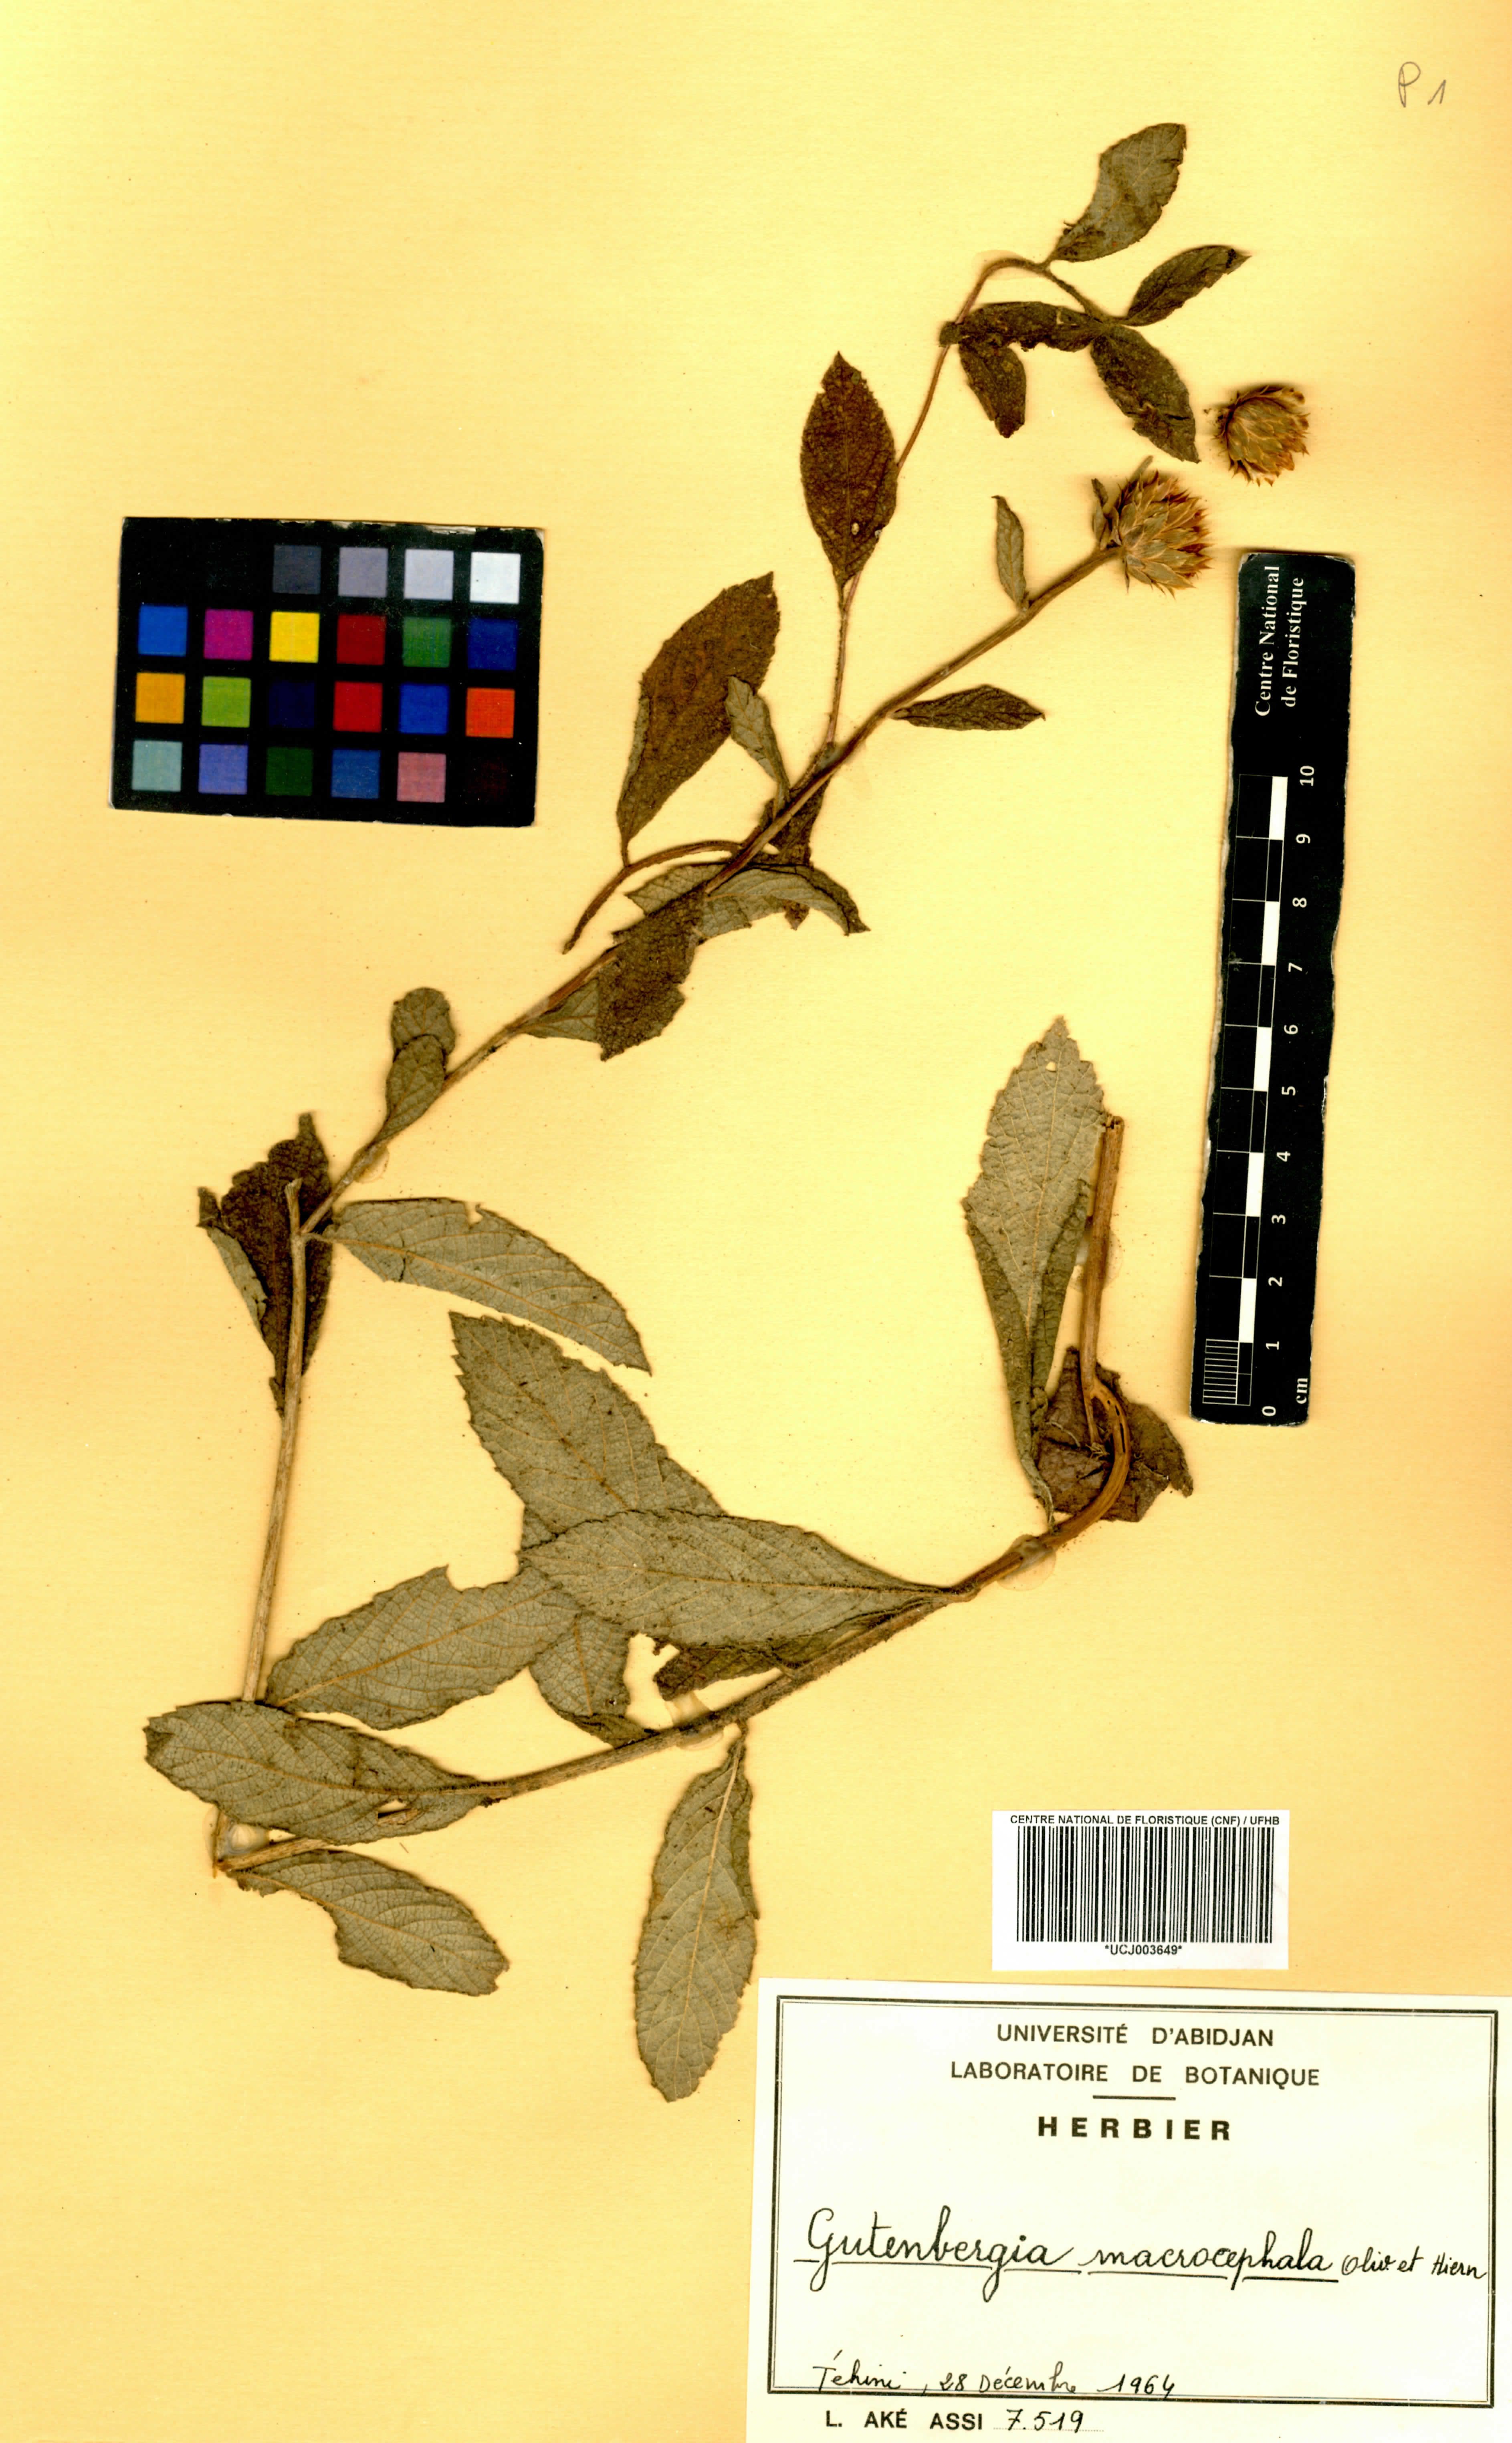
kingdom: Plantae
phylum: Tracheophyta
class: Magnoliopsida
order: Asterales
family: Asteraceae
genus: Kinghamia
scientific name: Kinghamia macrocephala
